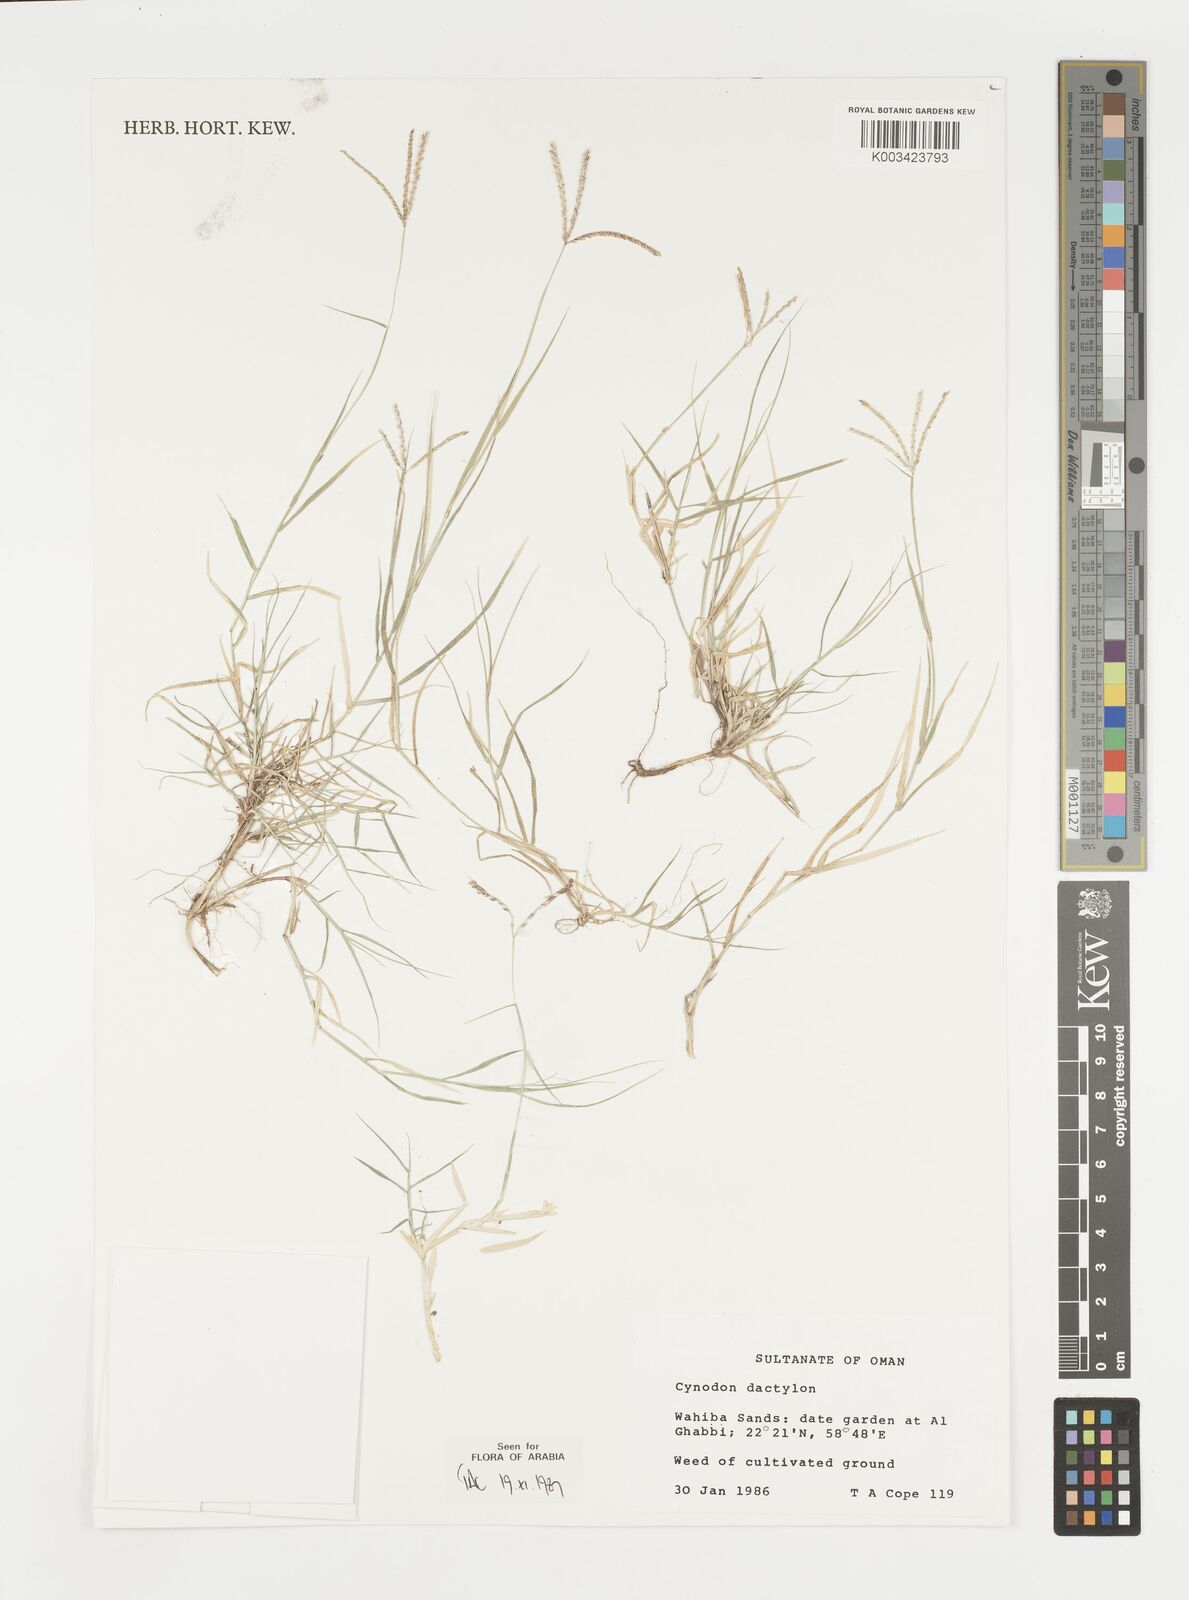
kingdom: Plantae
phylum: Tracheophyta
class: Liliopsida
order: Poales
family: Poaceae
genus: Cynodon
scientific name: Cynodon dactylon
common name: Bermuda grass
